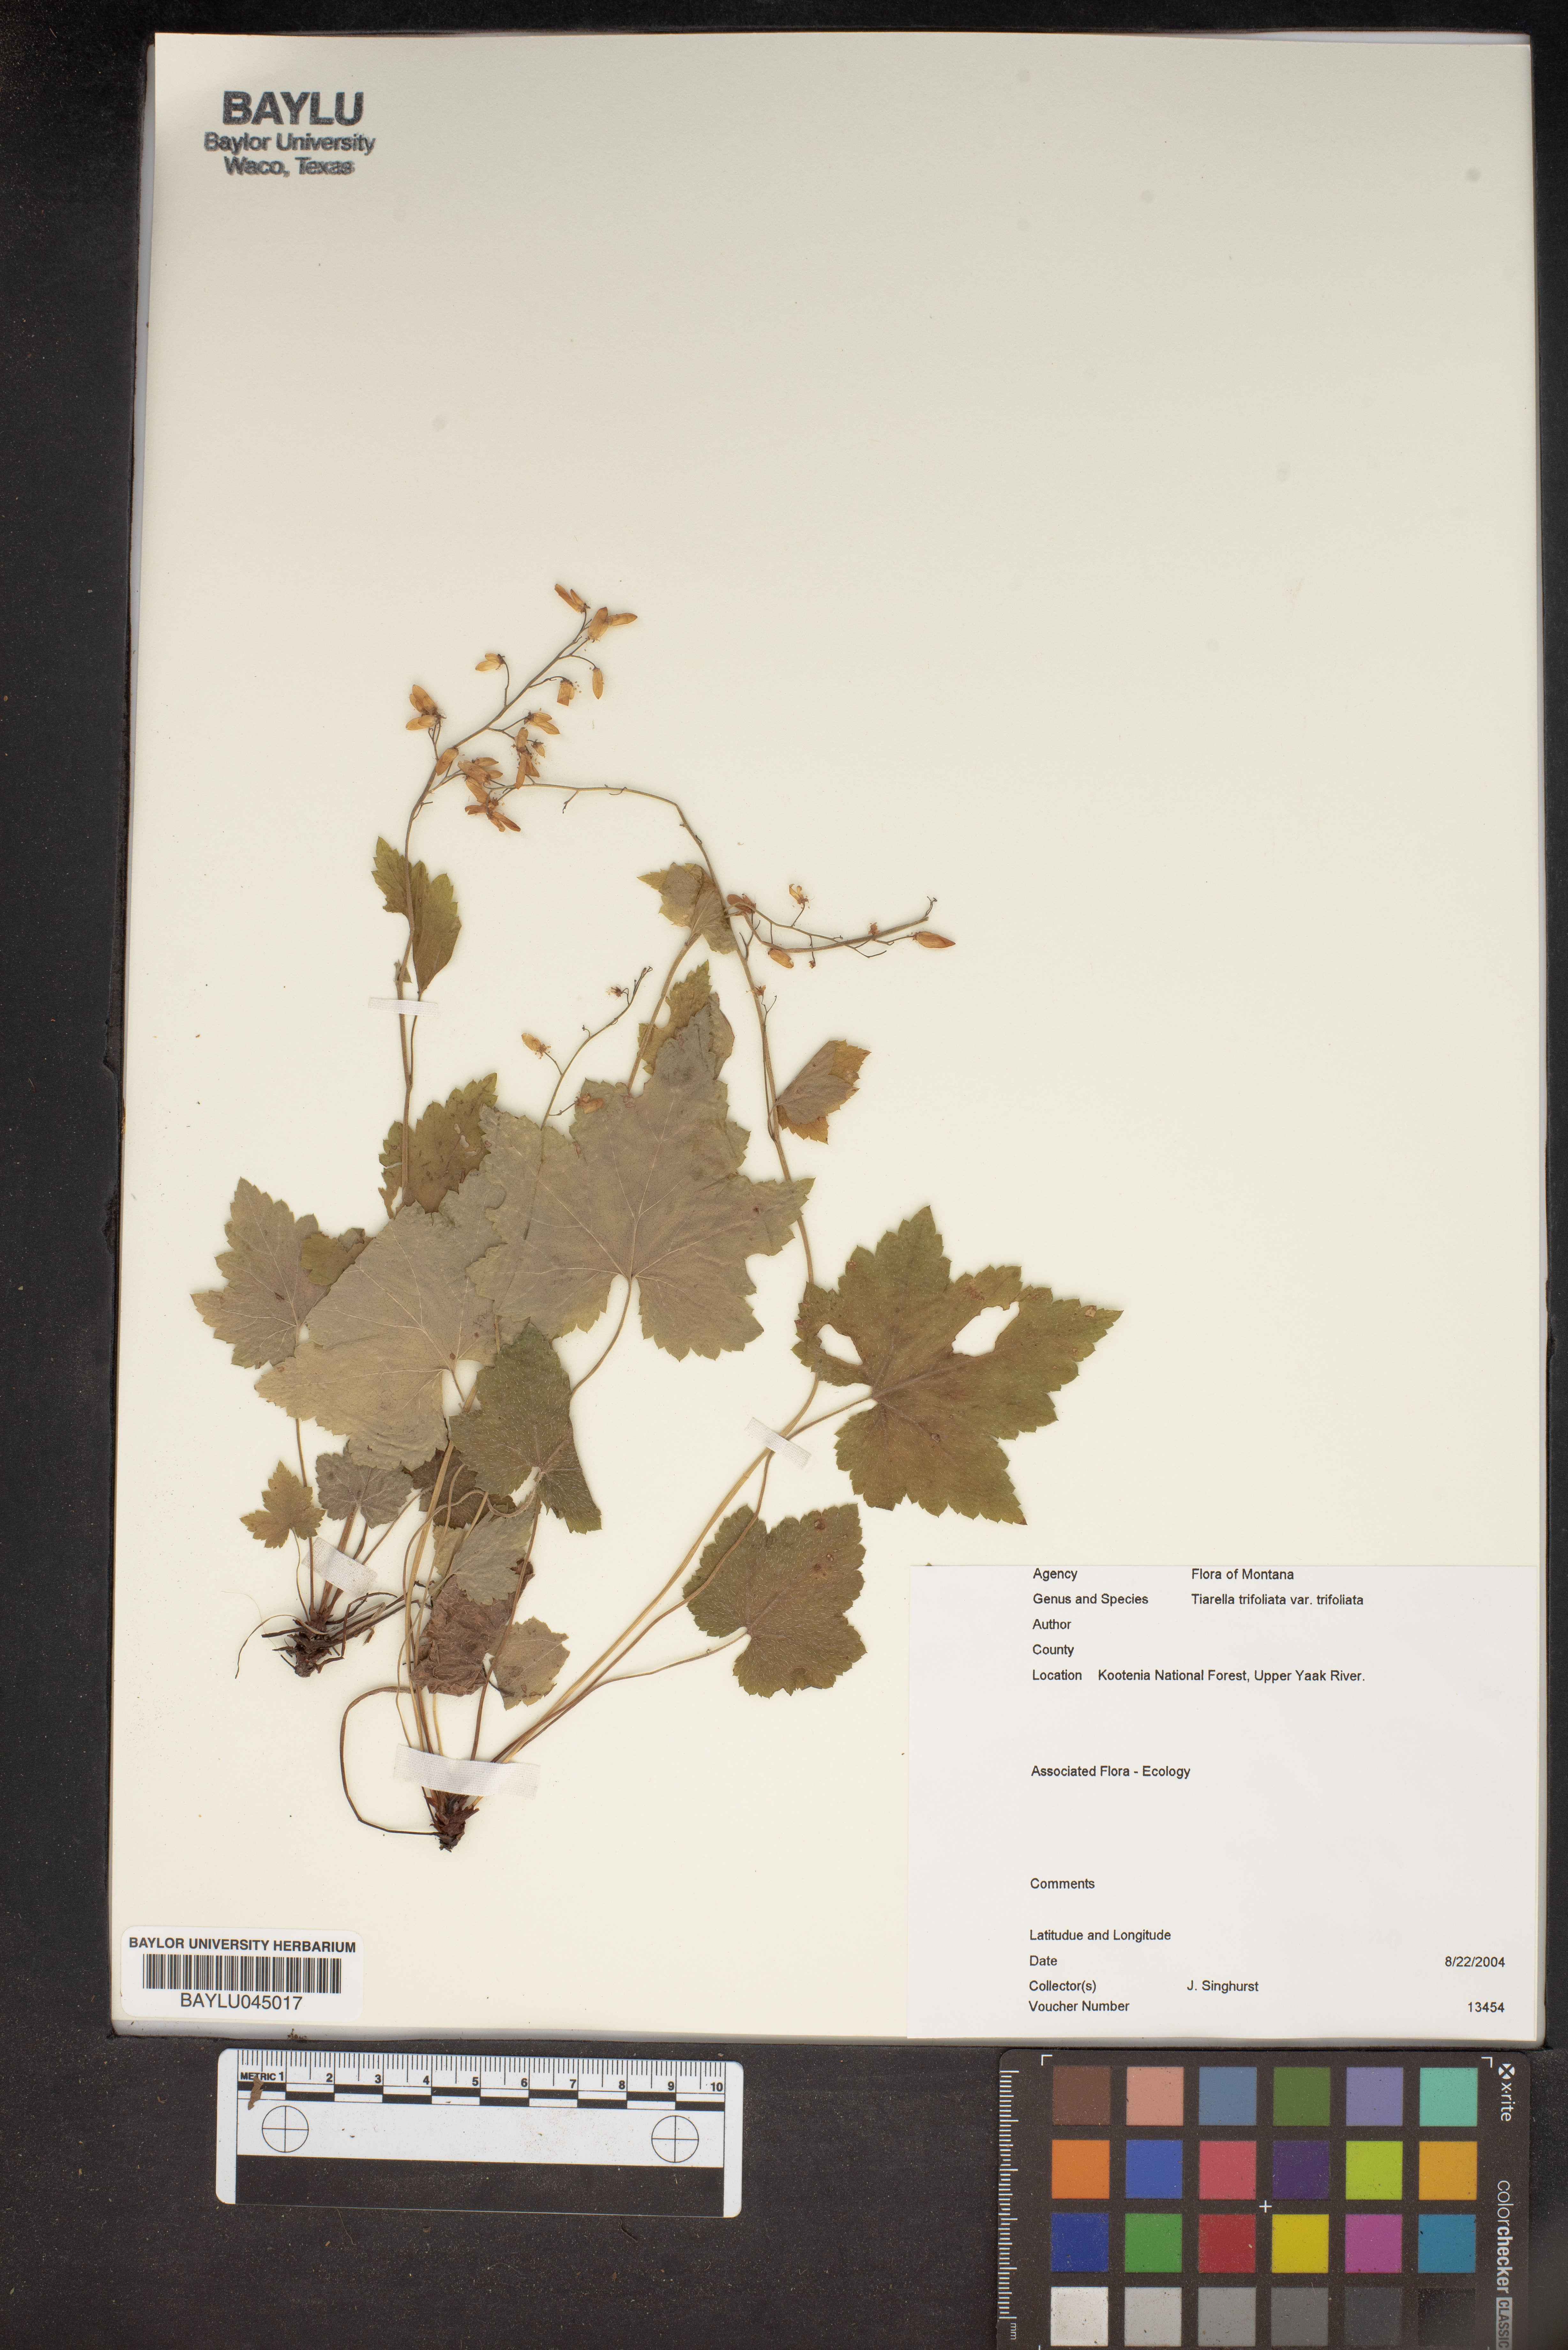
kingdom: Plantae
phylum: Tracheophyta
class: Magnoliopsida
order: Saxifragales
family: Saxifragaceae
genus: Tiarella
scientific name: Tiarella trifoliata
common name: Sugar-scoop
